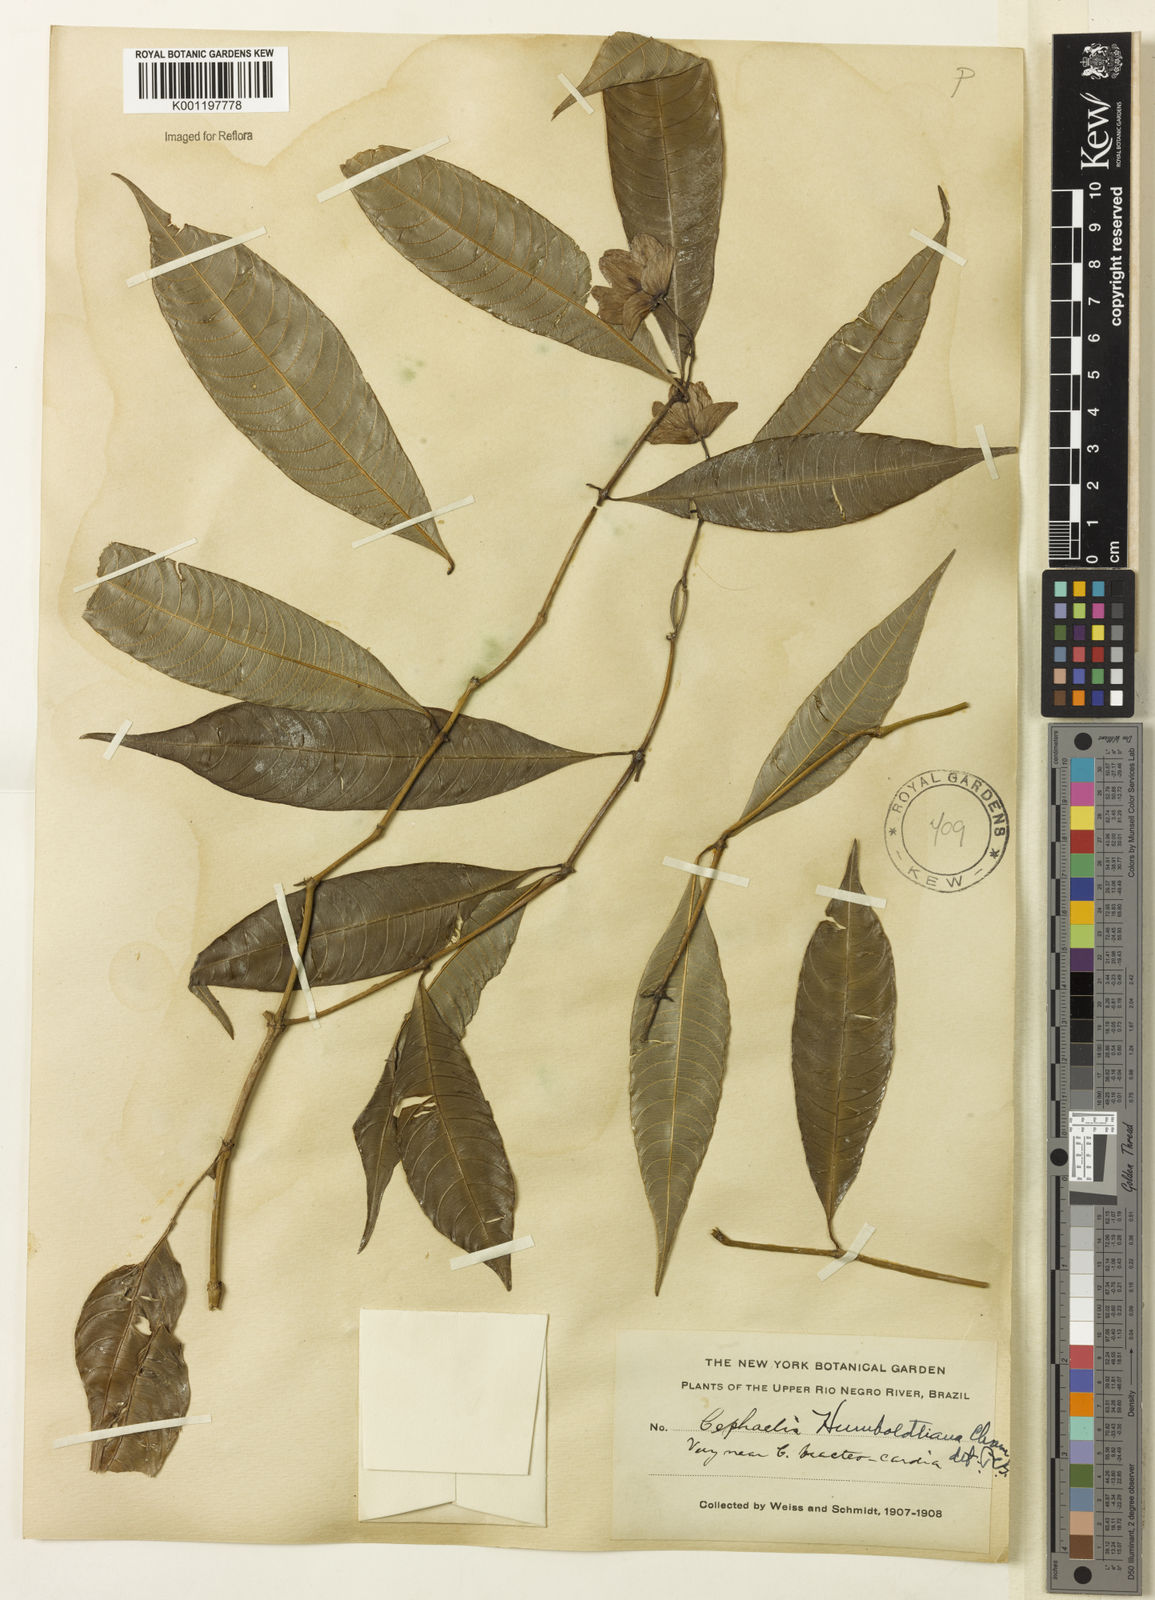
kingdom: Plantae
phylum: Tracheophyta
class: Magnoliopsida
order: Gentianales
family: Rubiaceae
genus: Psychotria
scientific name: Psychotria
